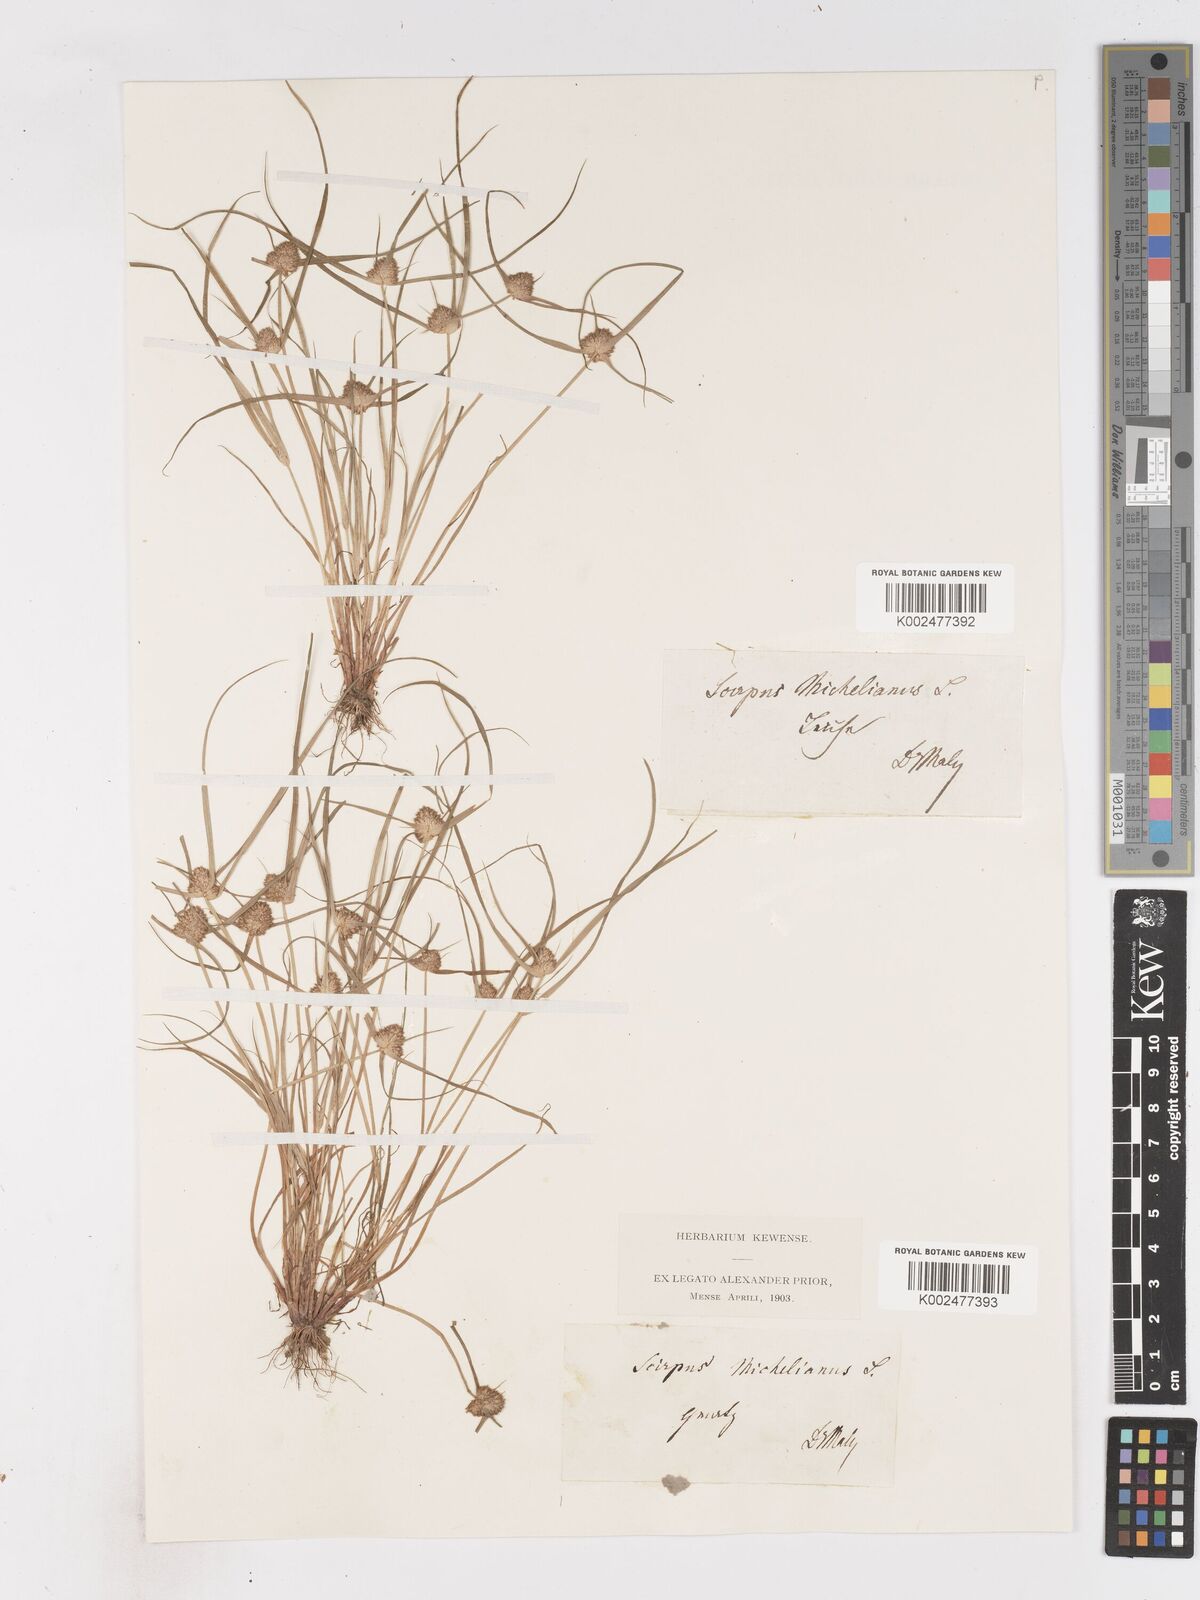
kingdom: Plantae
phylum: Tracheophyta
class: Liliopsida
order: Poales
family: Cyperaceae
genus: Cyperus
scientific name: Cyperus michelianus
